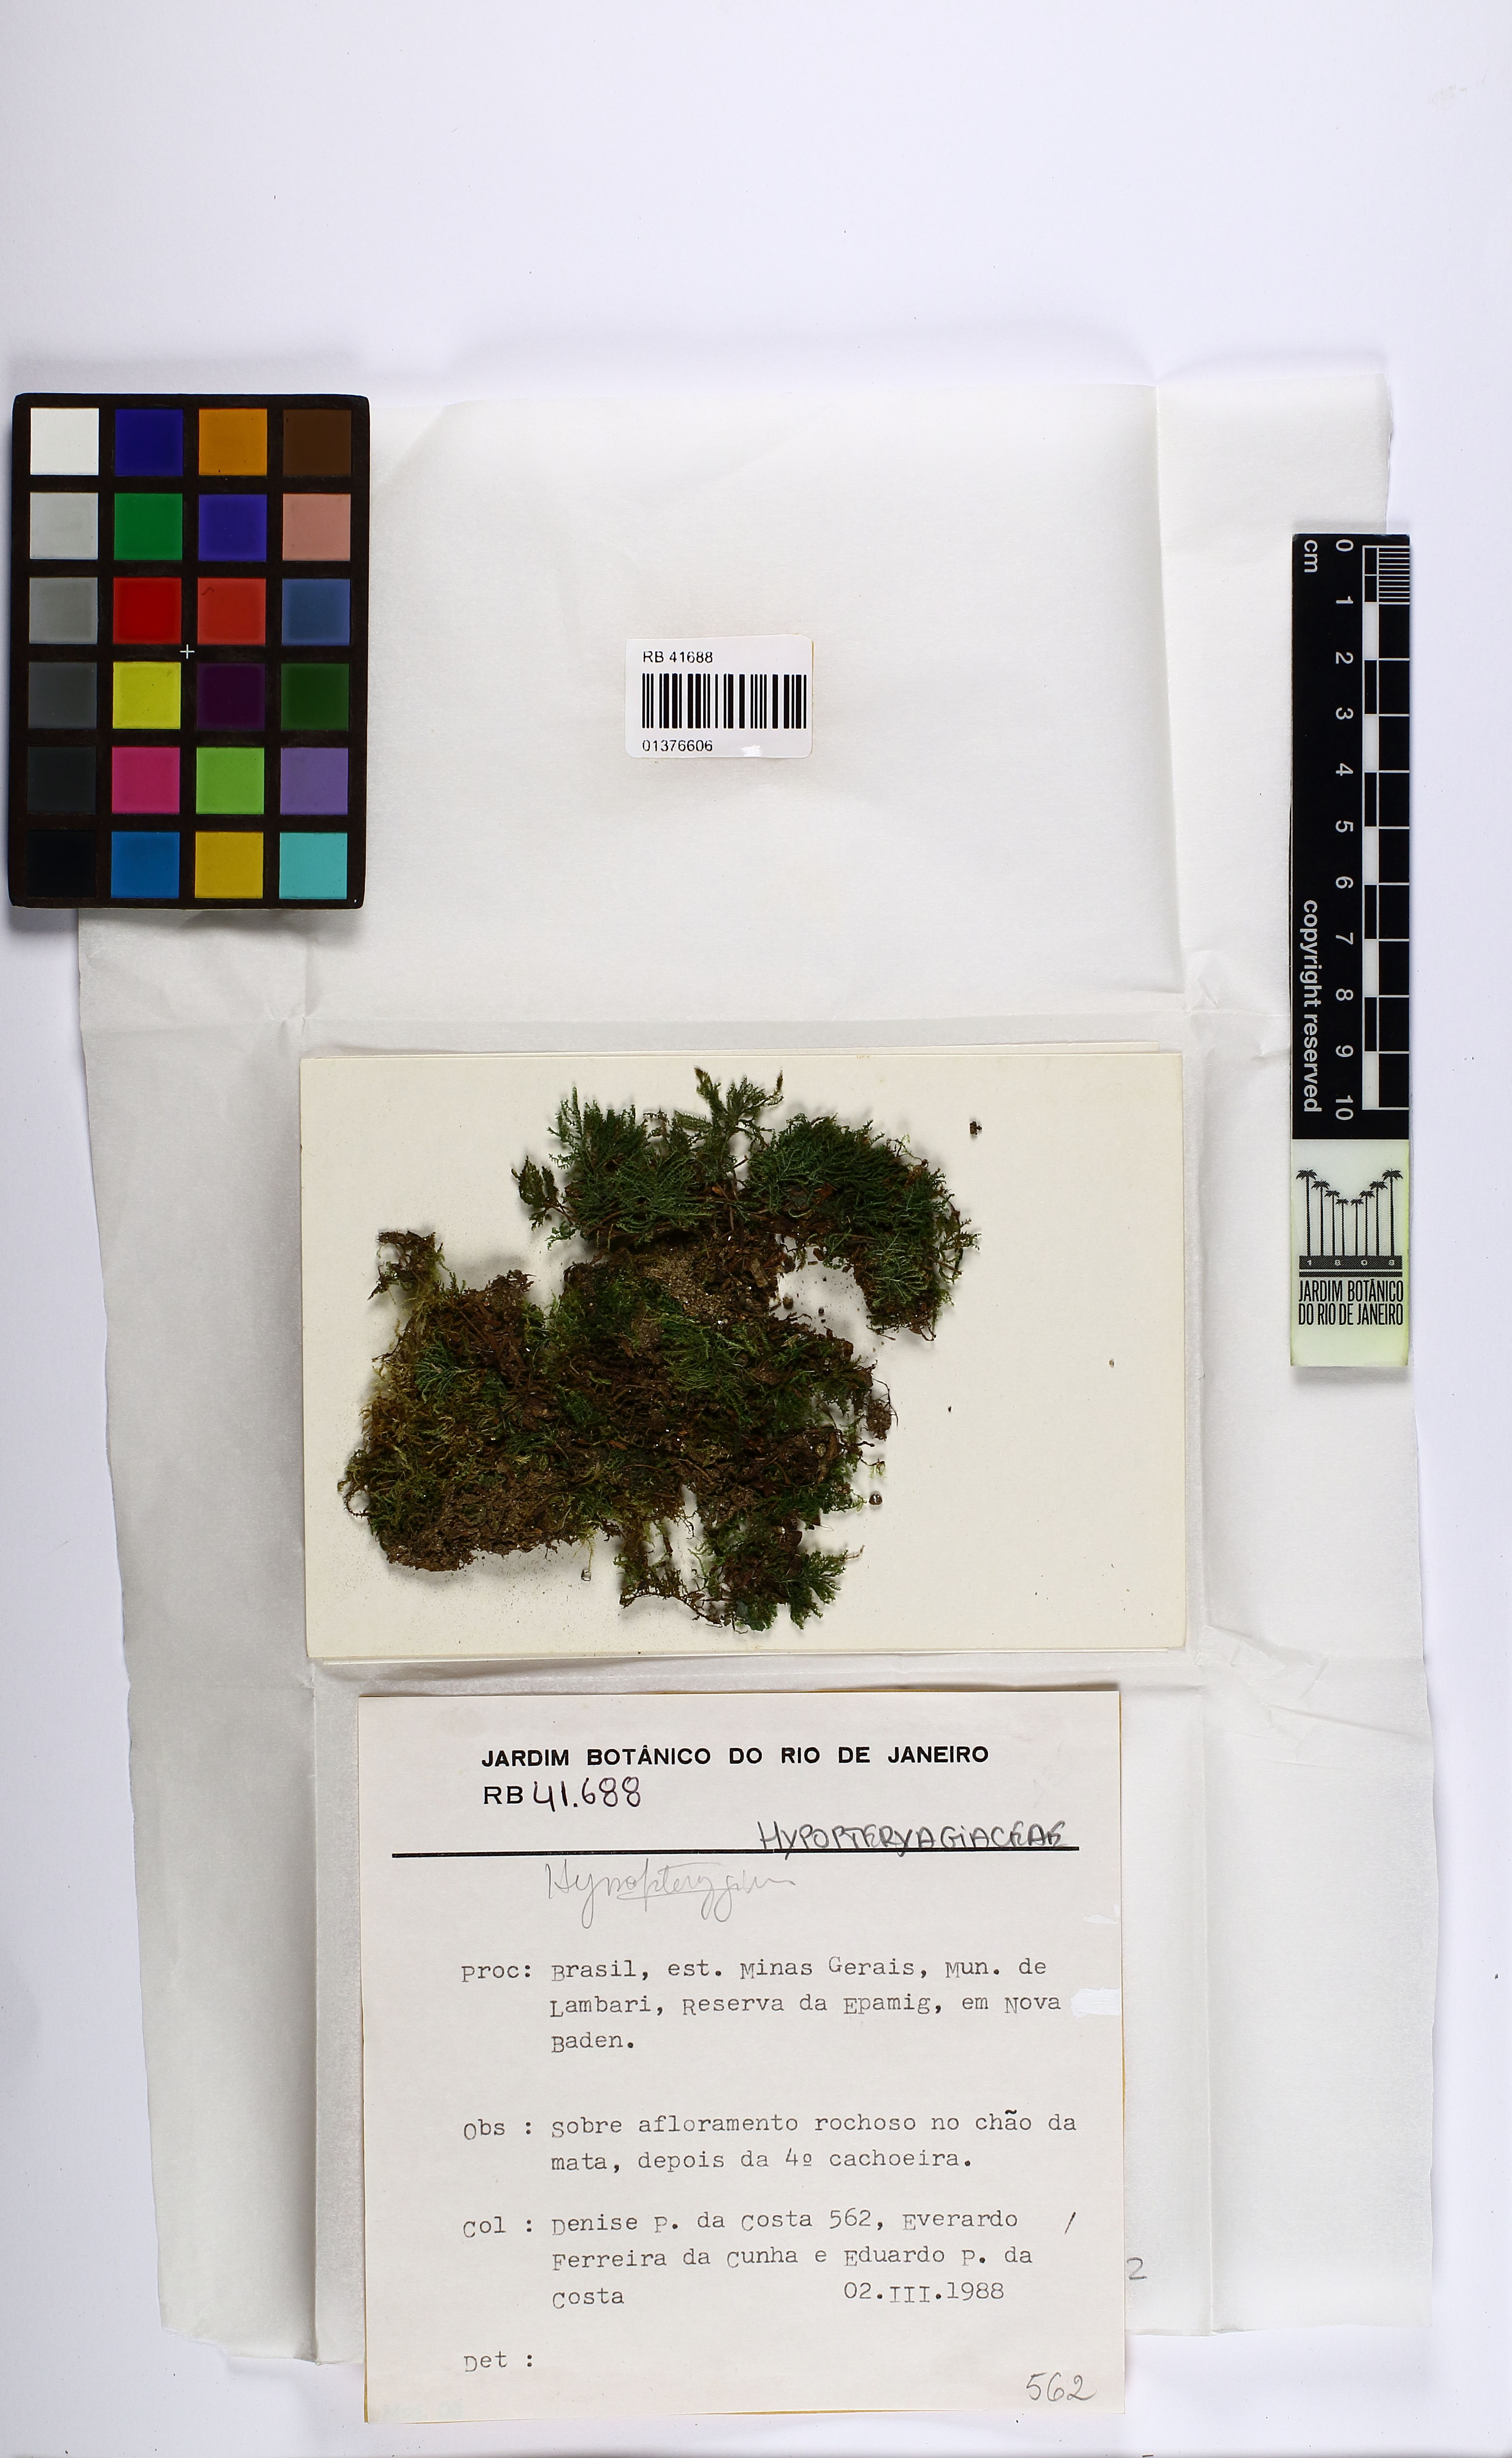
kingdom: Plantae
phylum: Bryophyta
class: Bryopsida
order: Hypopterygiales
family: Hypopterygiaceae
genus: Hypopterygium
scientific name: Hypopterygium tamarisci
